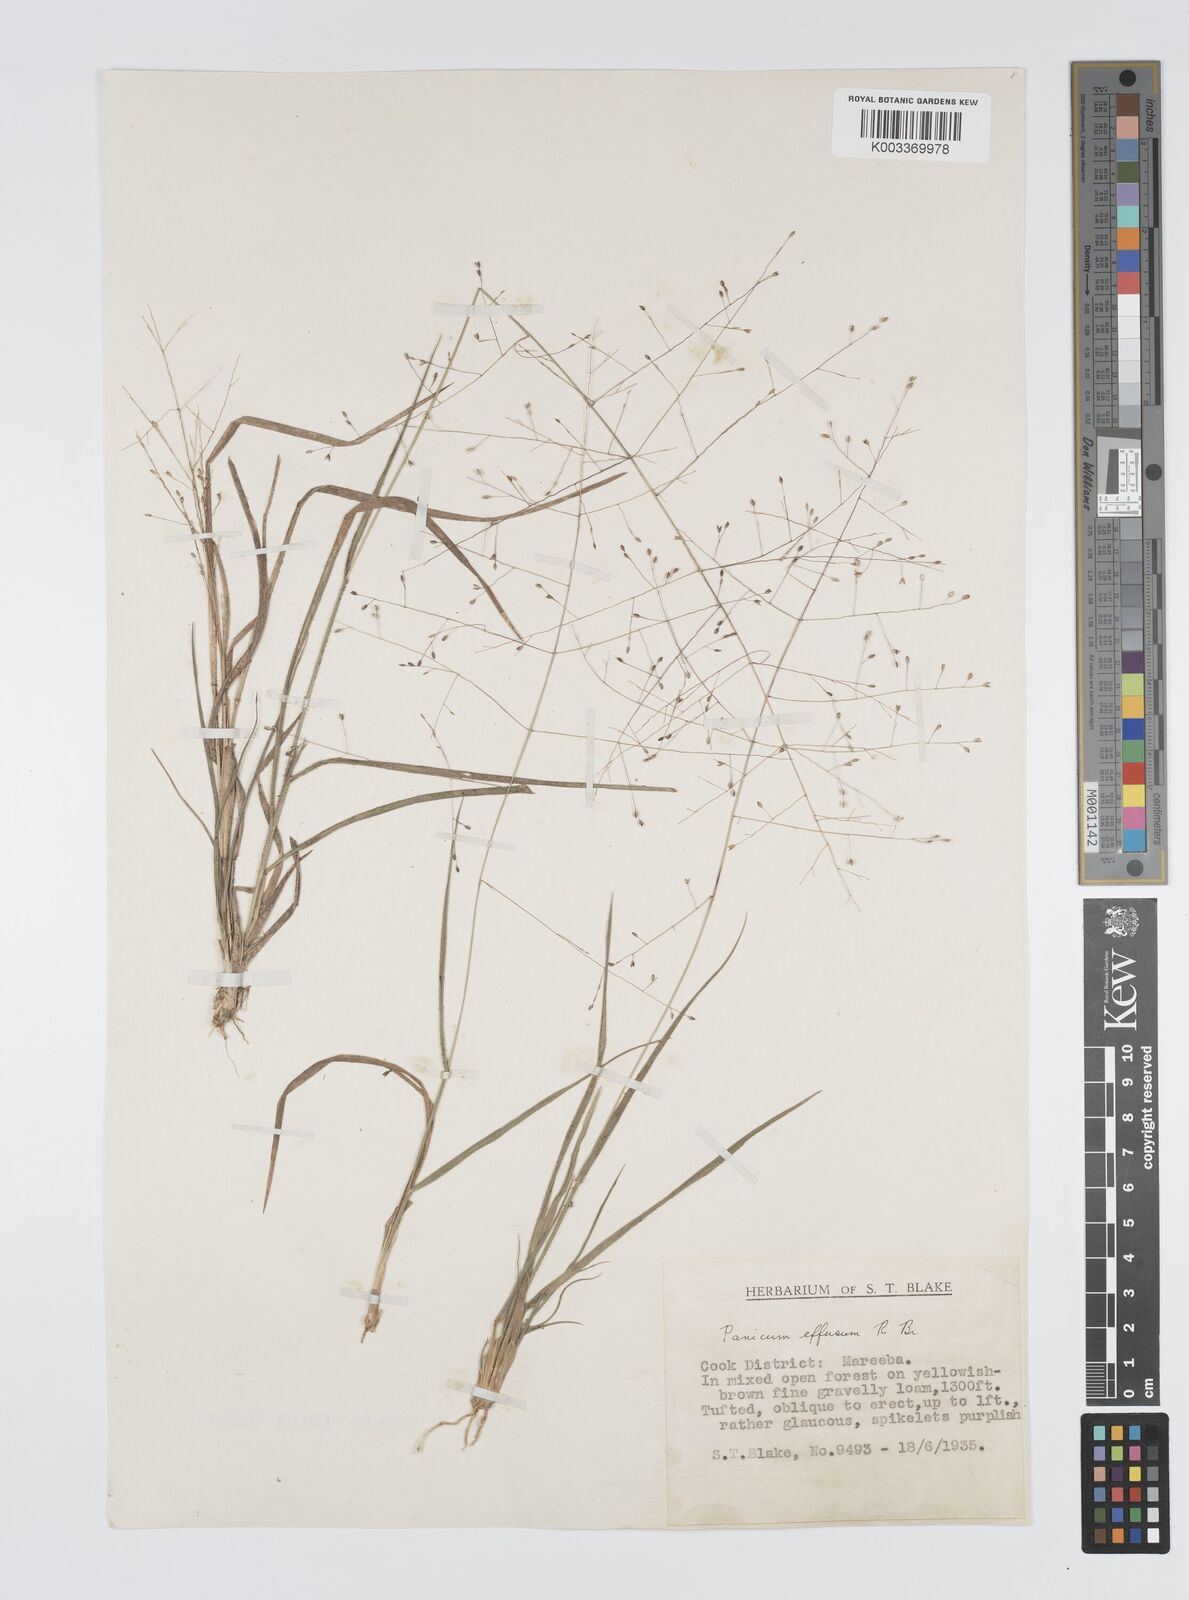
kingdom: Plantae
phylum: Tracheophyta
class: Liliopsida
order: Poales
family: Poaceae
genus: Panicum
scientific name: Panicum effusum
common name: Hairy panic grass
